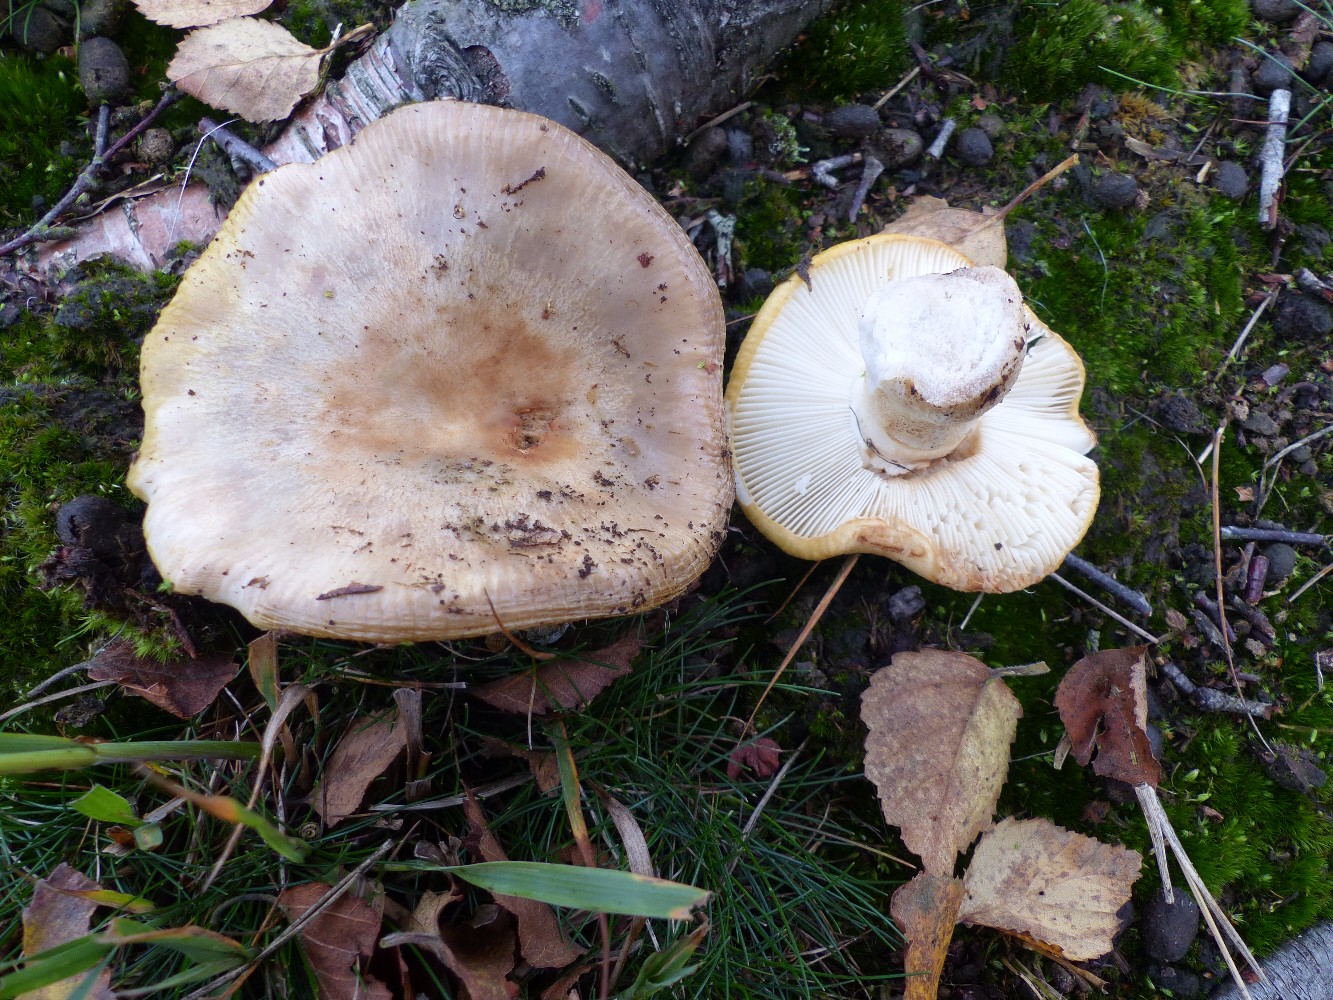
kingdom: Fungi
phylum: Basidiomycota
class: Agaricomycetes
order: Russulales
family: Russulaceae
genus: Russula
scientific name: Russula claroflava
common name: birke-skørhat
